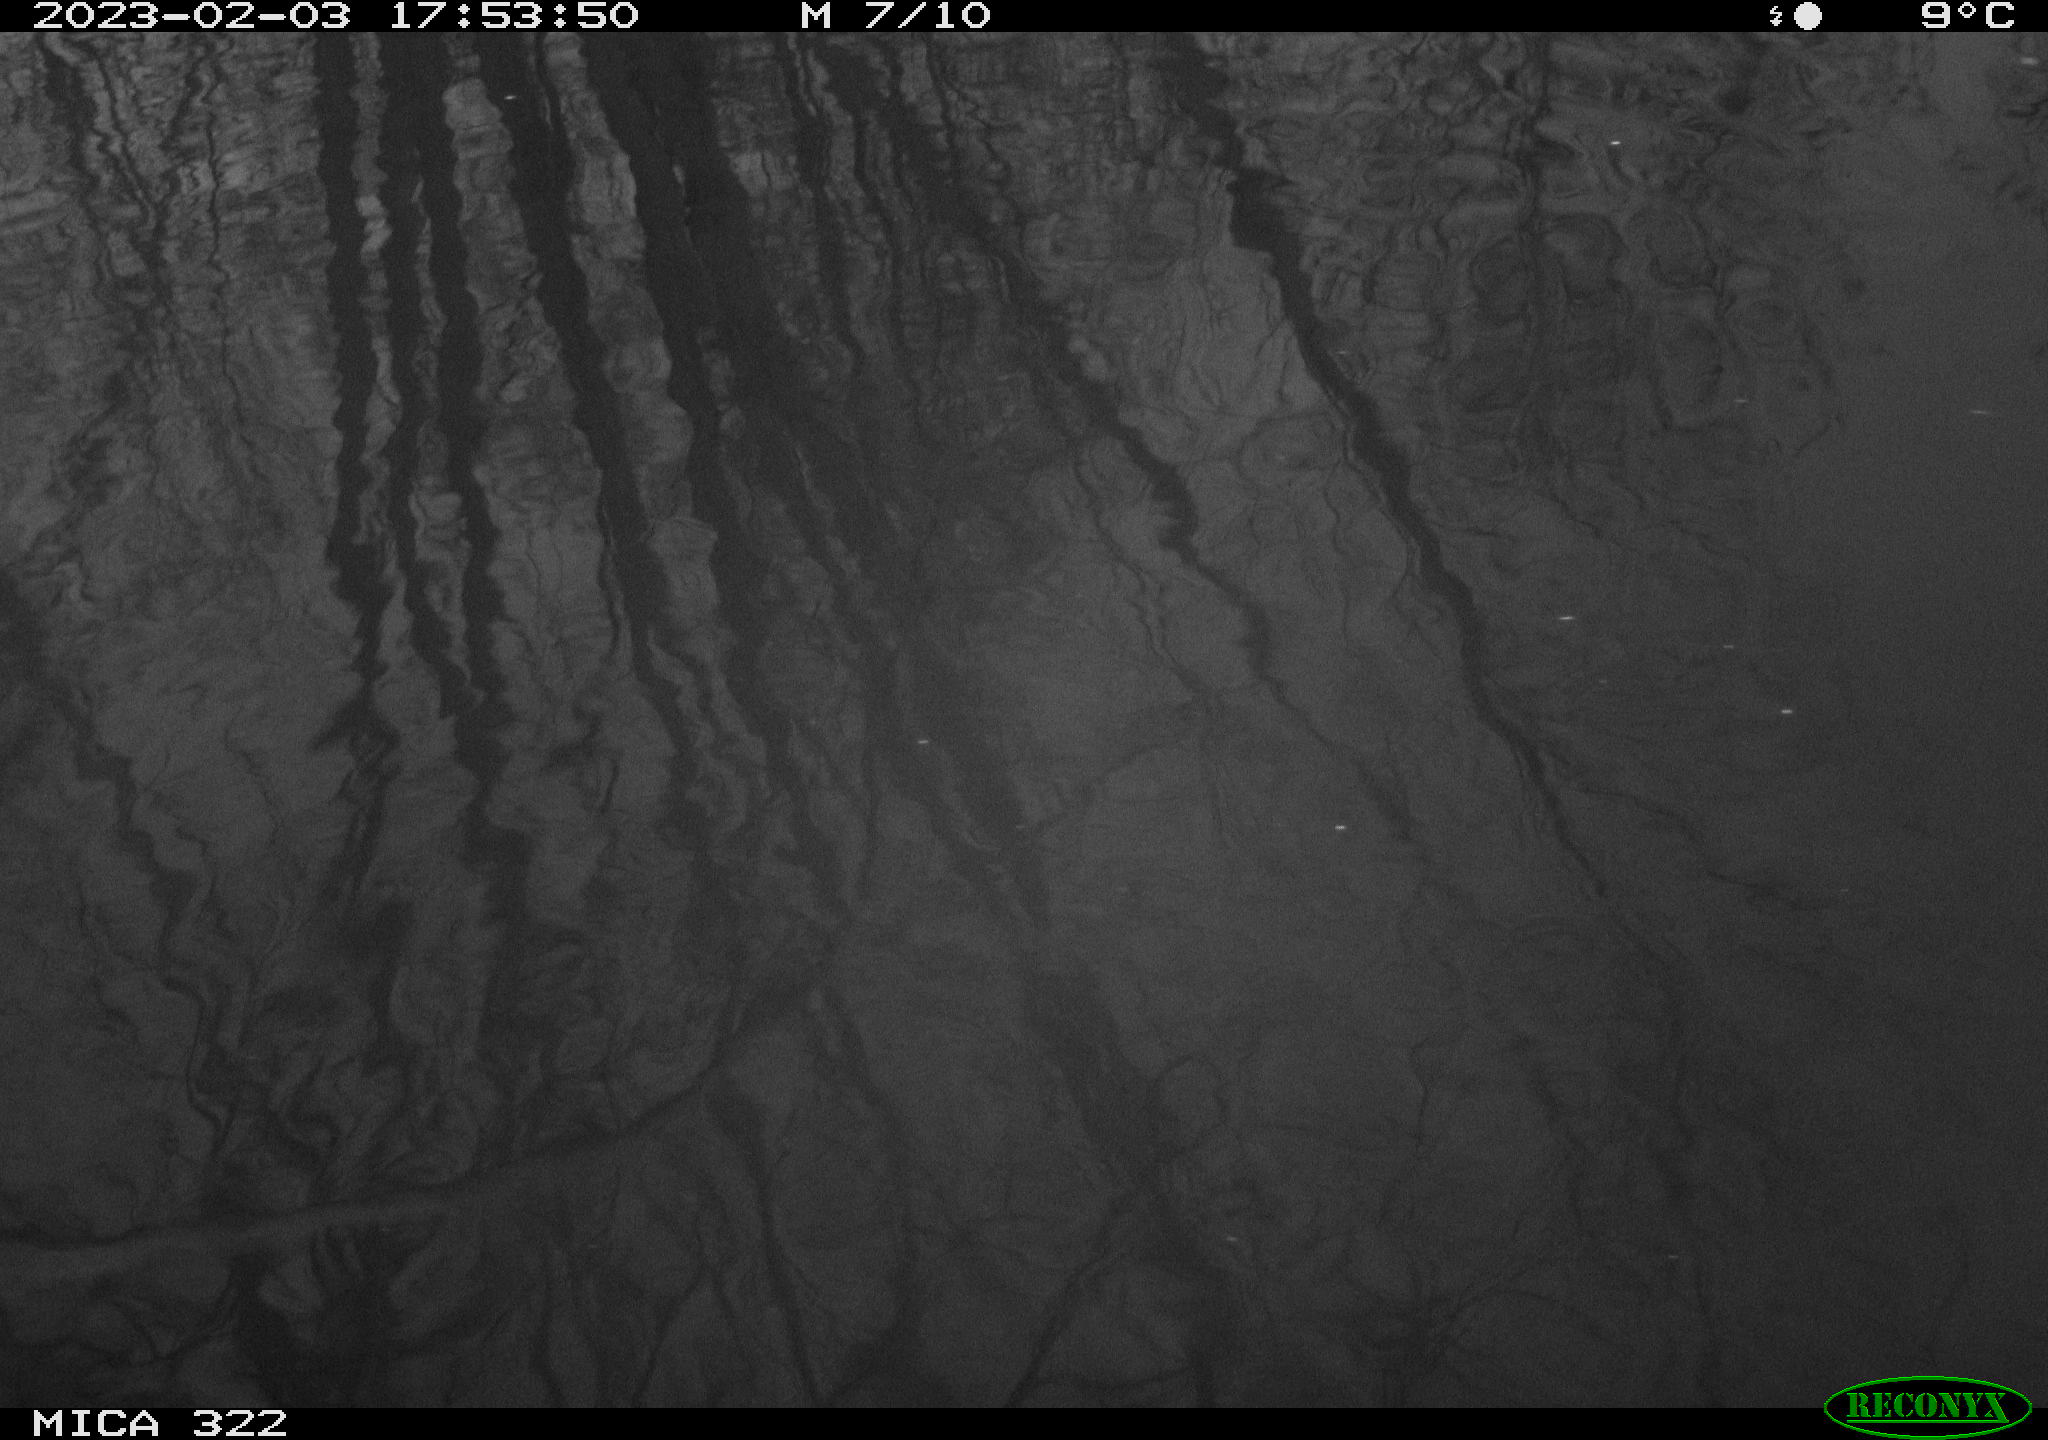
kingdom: Animalia
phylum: Chordata
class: Aves
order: Gruiformes
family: Rallidae
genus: Gallinula
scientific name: Gallinula chloropus
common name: Common moorhen
